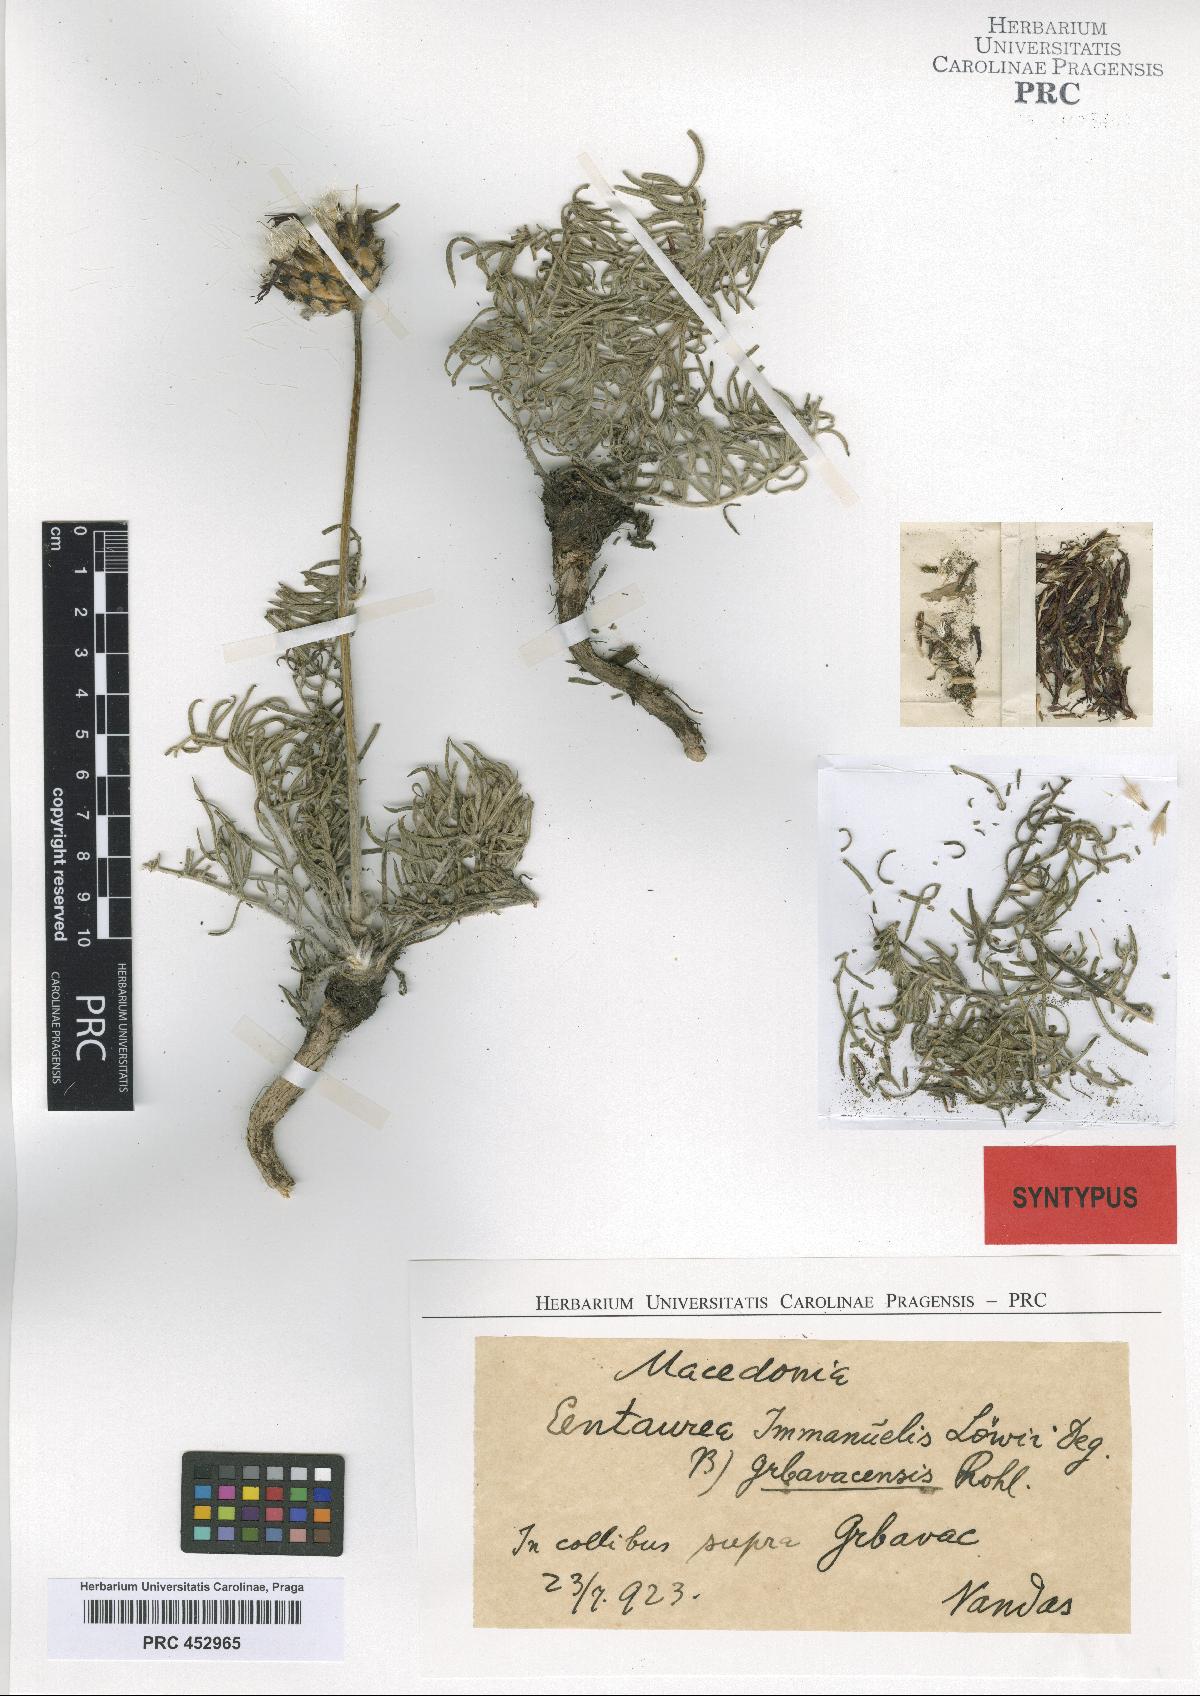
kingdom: Plantae
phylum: Tracheophyta
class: Magnoliopsida
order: Asterales
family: Asteraceae
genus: Centaurea
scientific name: Centaurea grbavacensis
